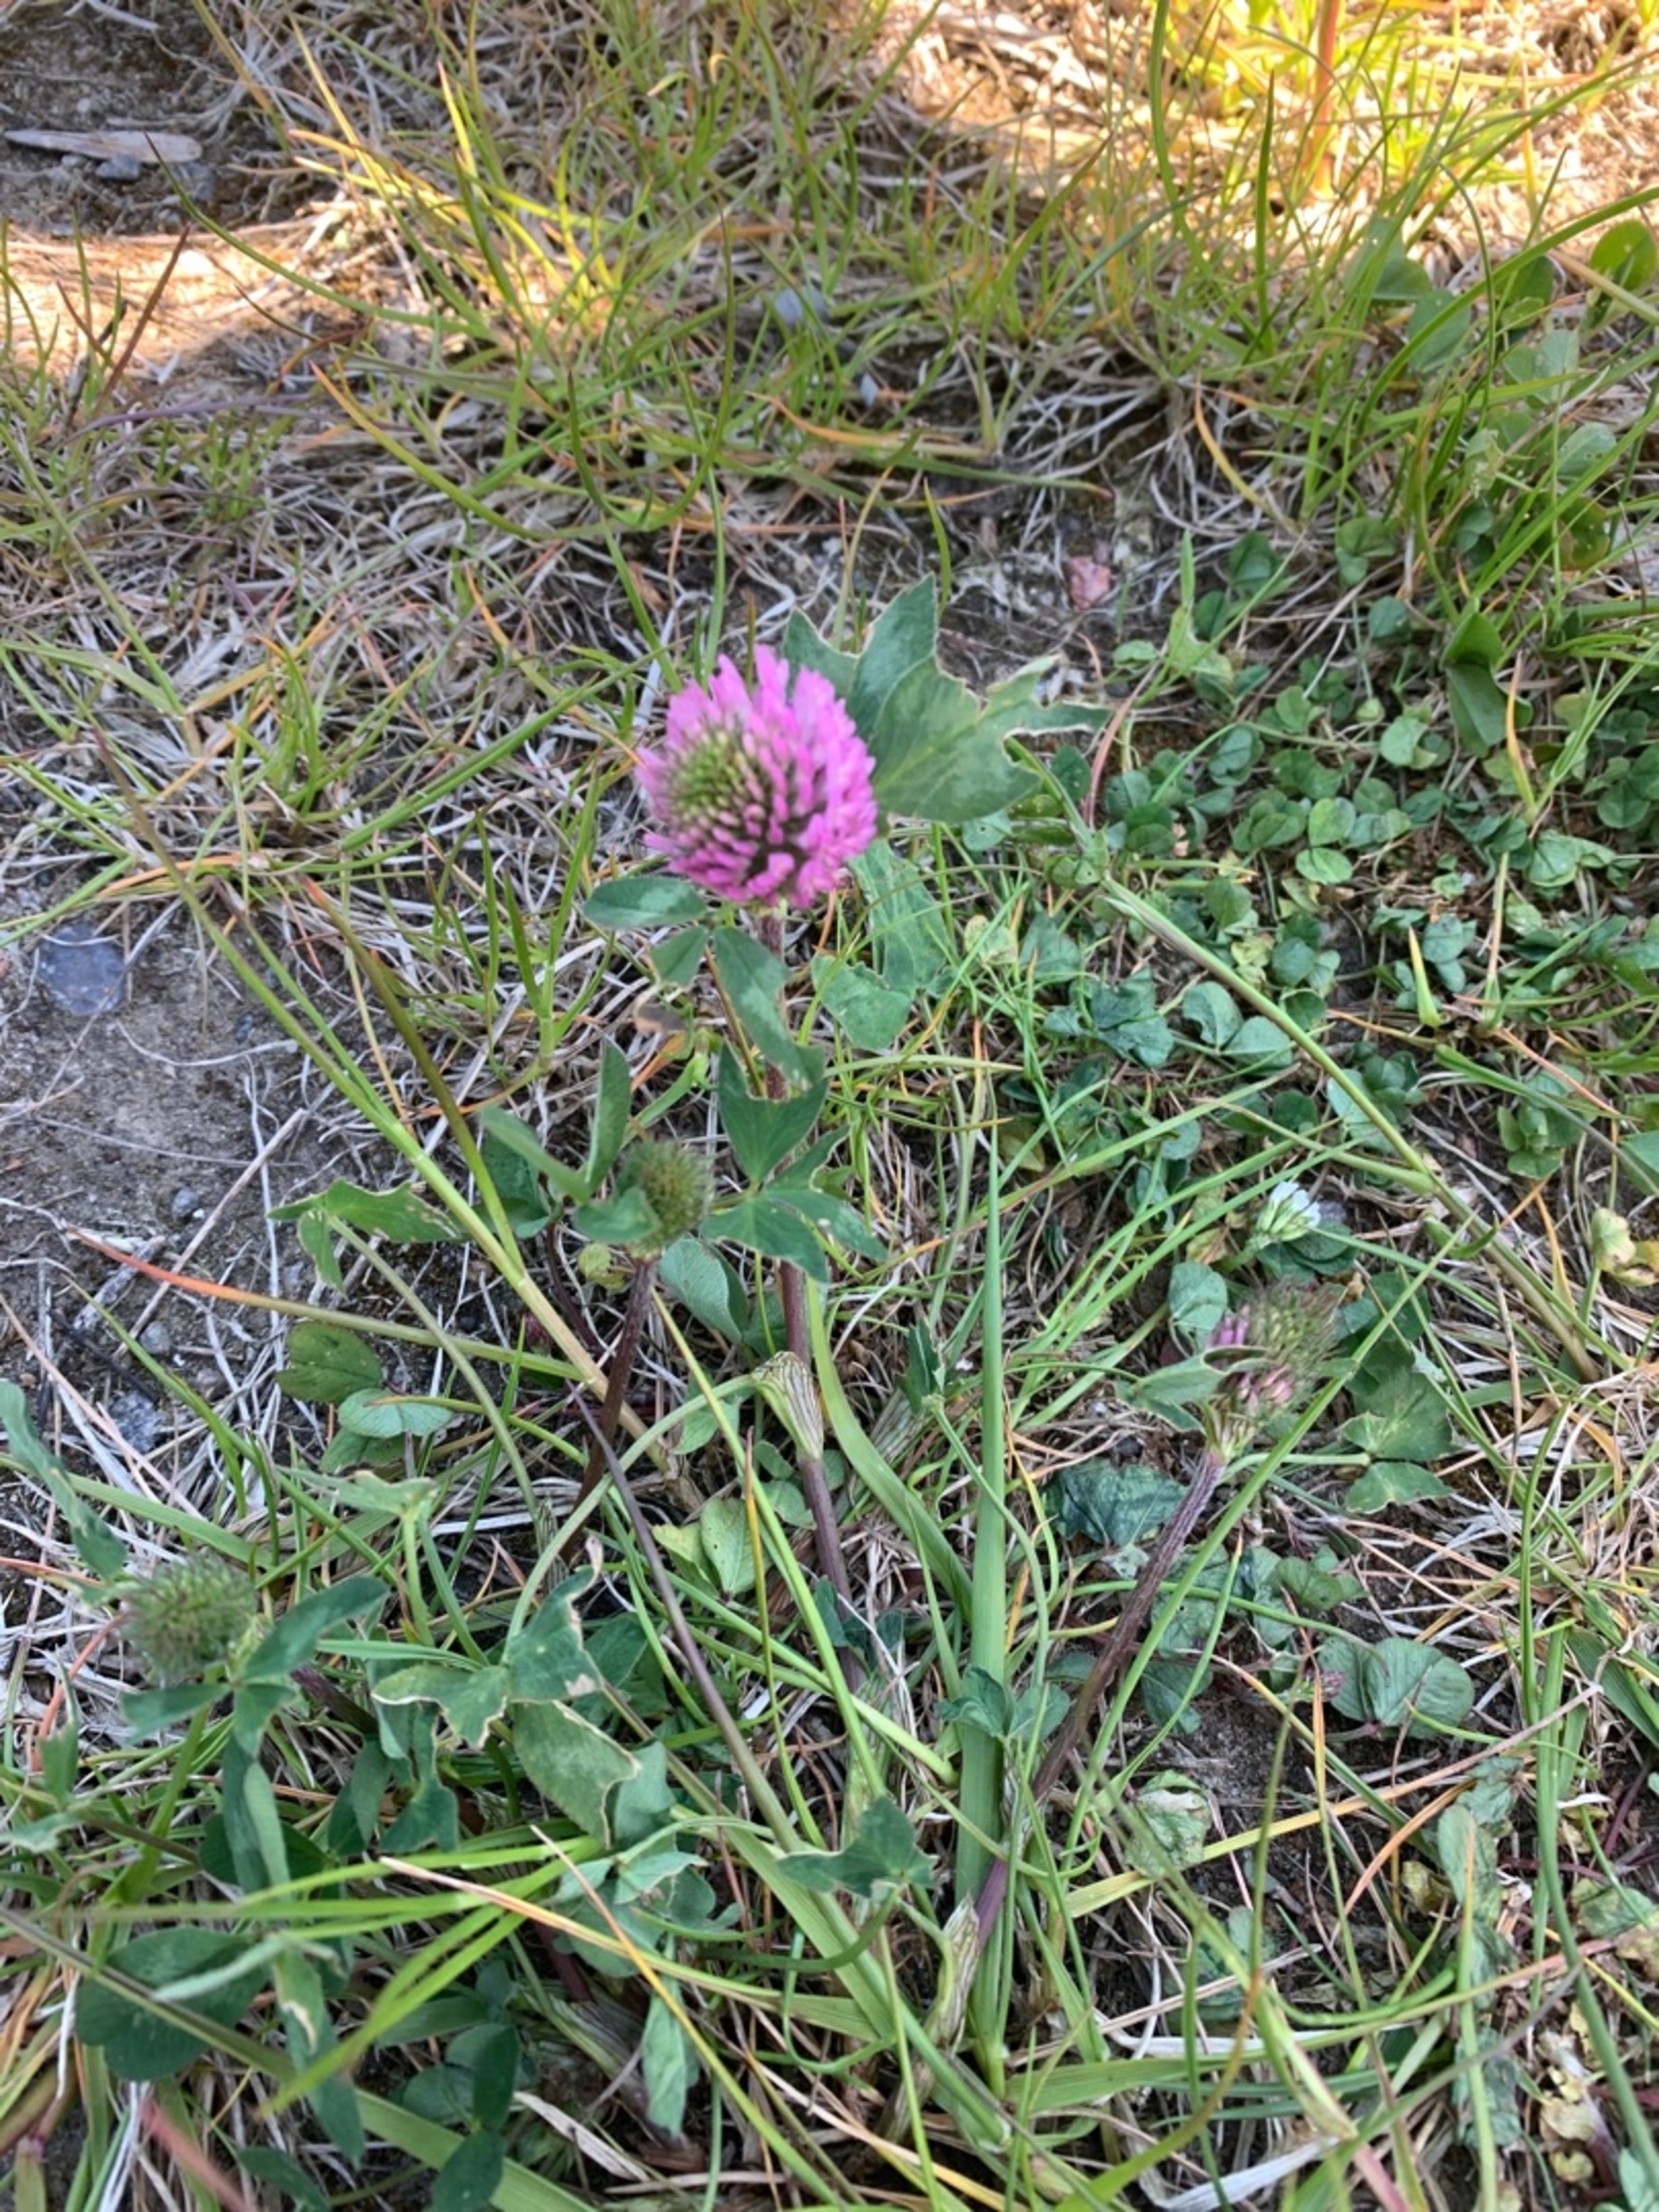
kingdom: Plantae
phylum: Tracheophyta
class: Magnoliopsida
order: Fabales
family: Fabaceae
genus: Trifolium
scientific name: Trifolium pratense
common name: Rød-kløver
